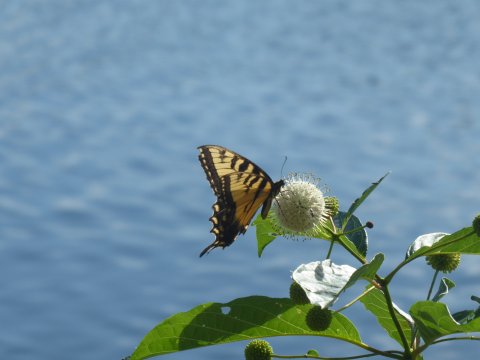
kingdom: Animalia
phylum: Arthropoda
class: Insecta
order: Lepidoptera
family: Papilionidae
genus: Pterourus
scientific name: Pterourus glaucus
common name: Eastern Tiger Swallowtail
